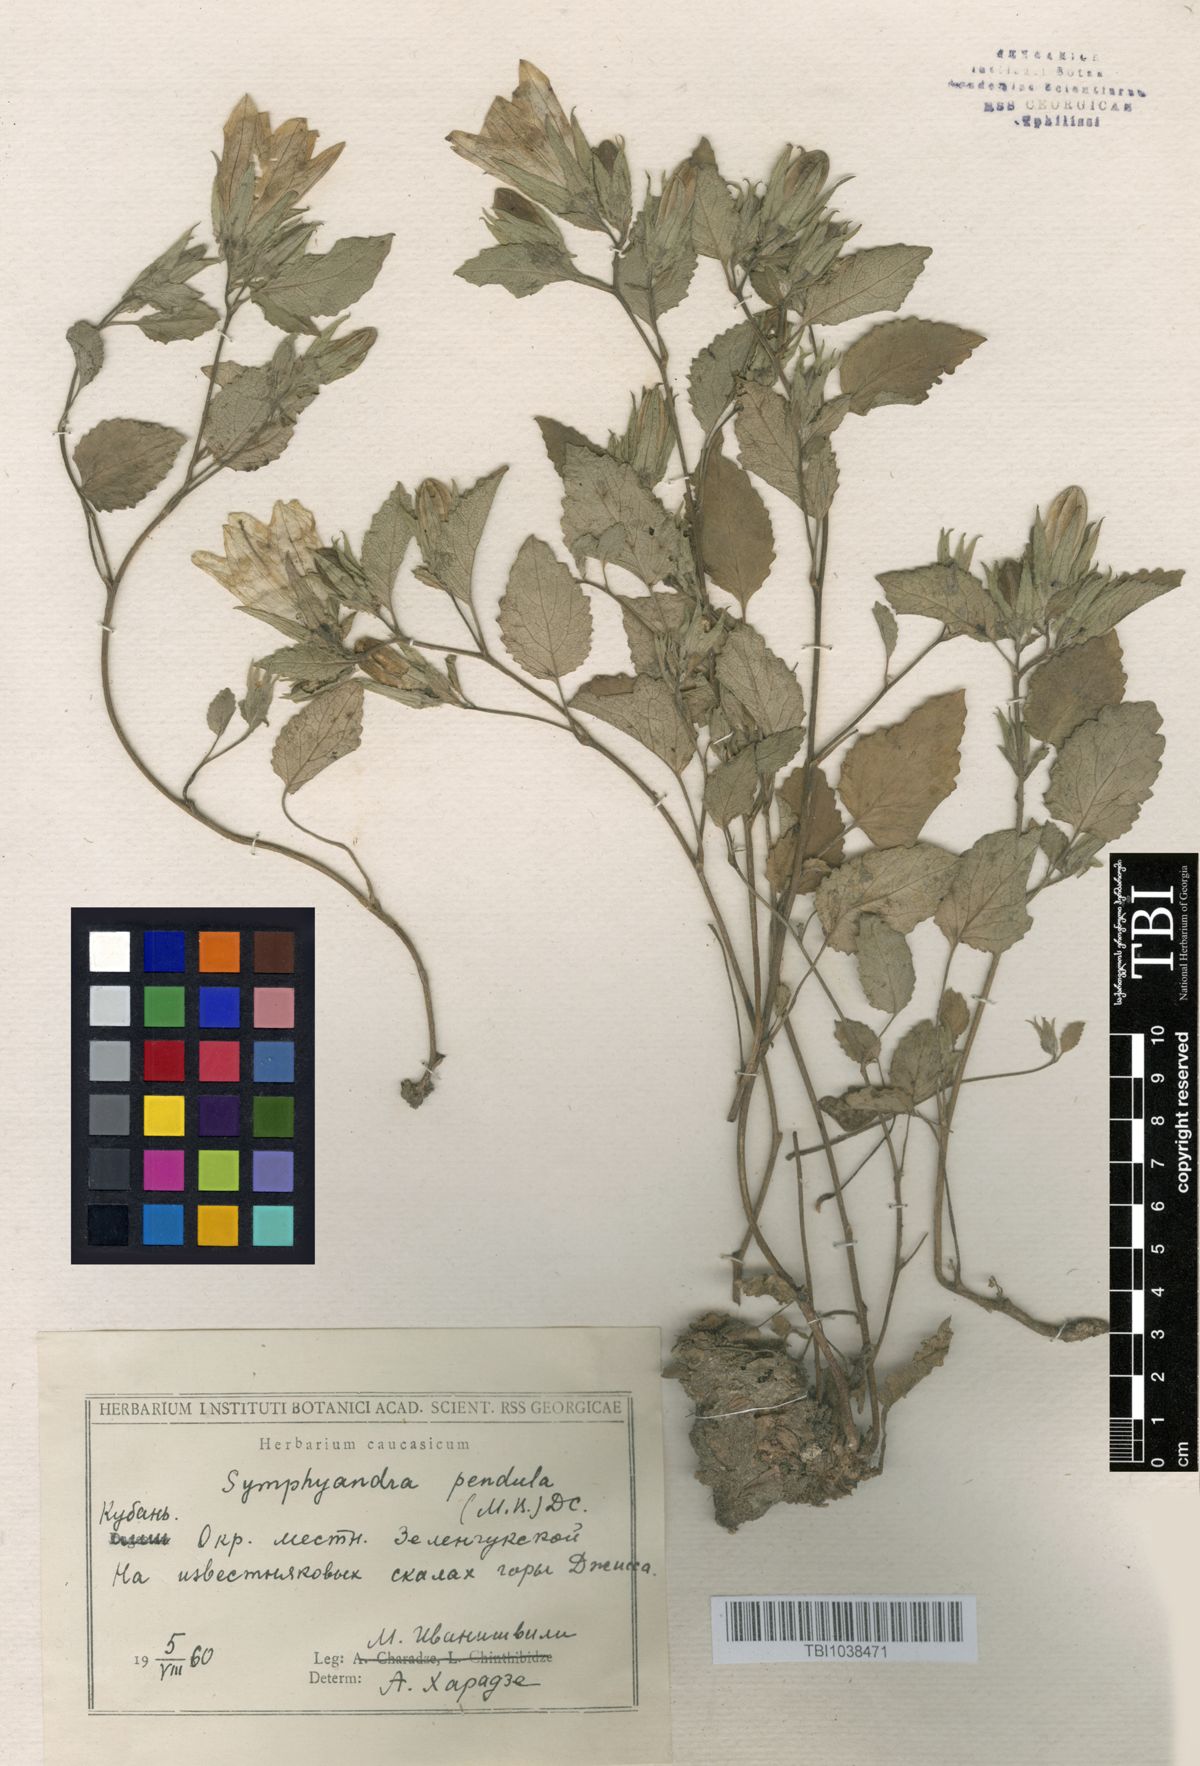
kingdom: Plantae
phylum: Tracheophyta
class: Magnoliopsida
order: Asterales
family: Campanulaceae
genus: Campanula
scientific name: Campanula pendula
